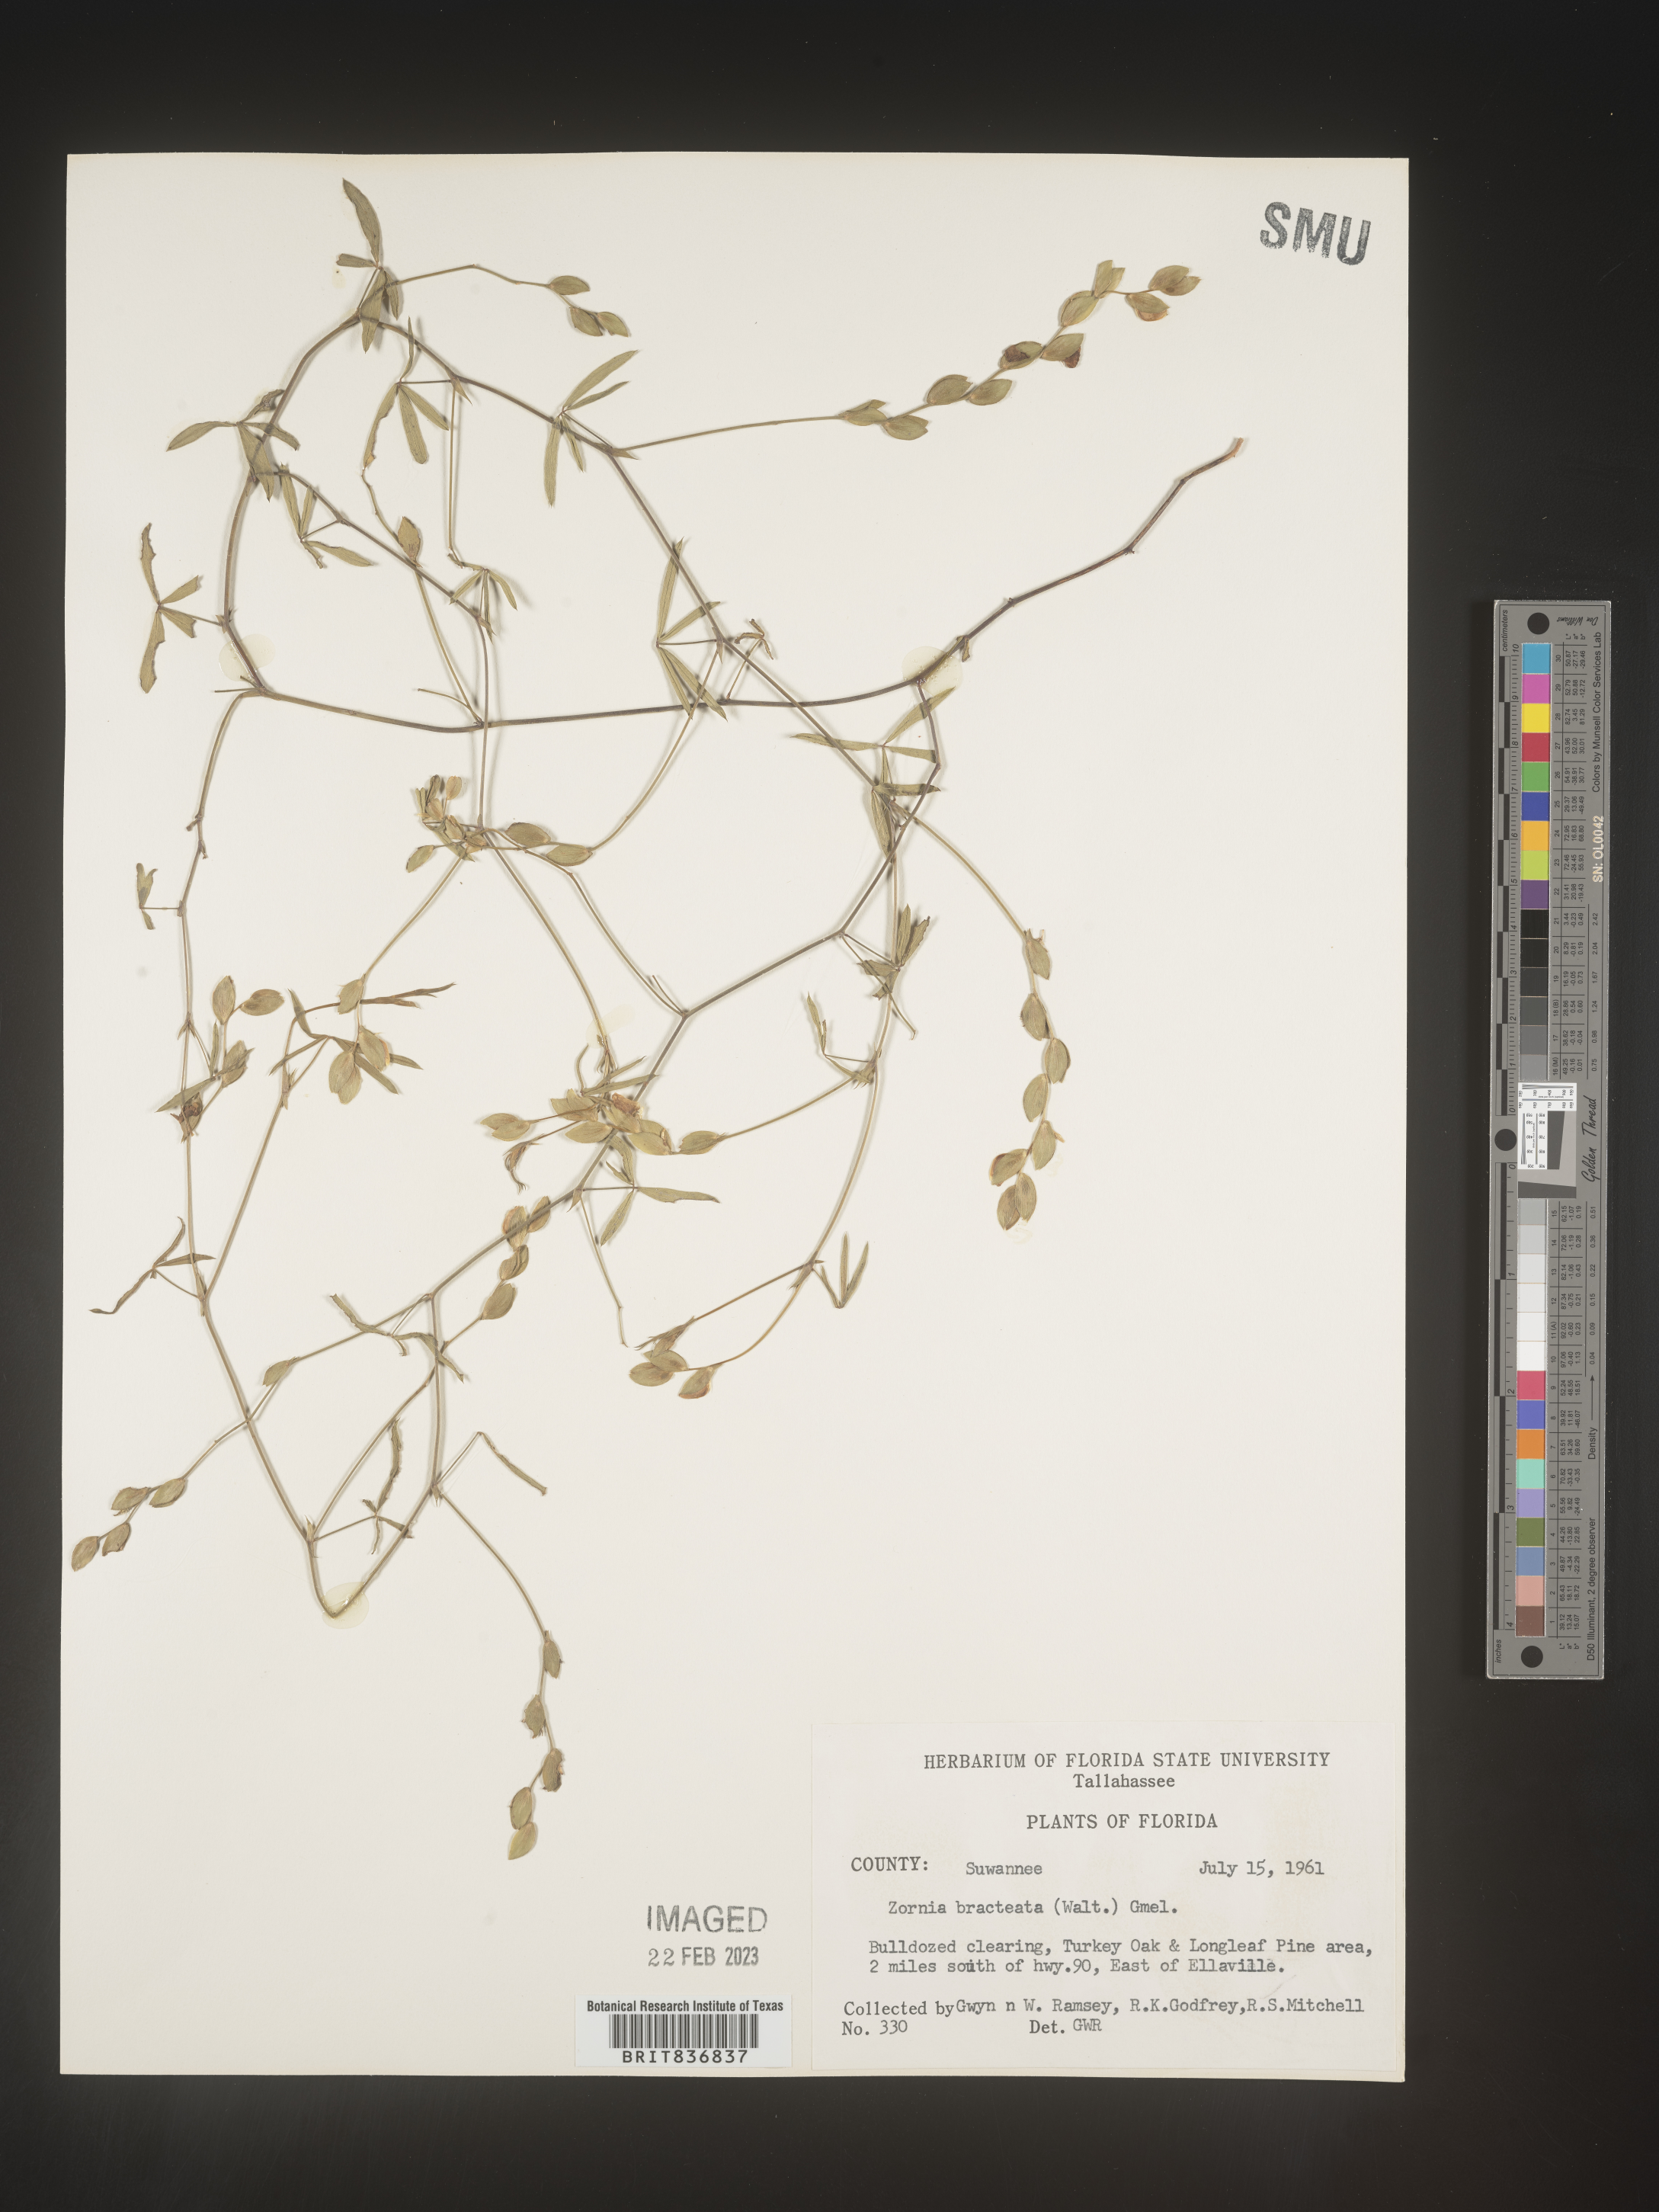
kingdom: Plantae
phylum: Tracheophyta
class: Magnoliopsida
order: Fabales
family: Fabaceae
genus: Zornia
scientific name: Zornia
